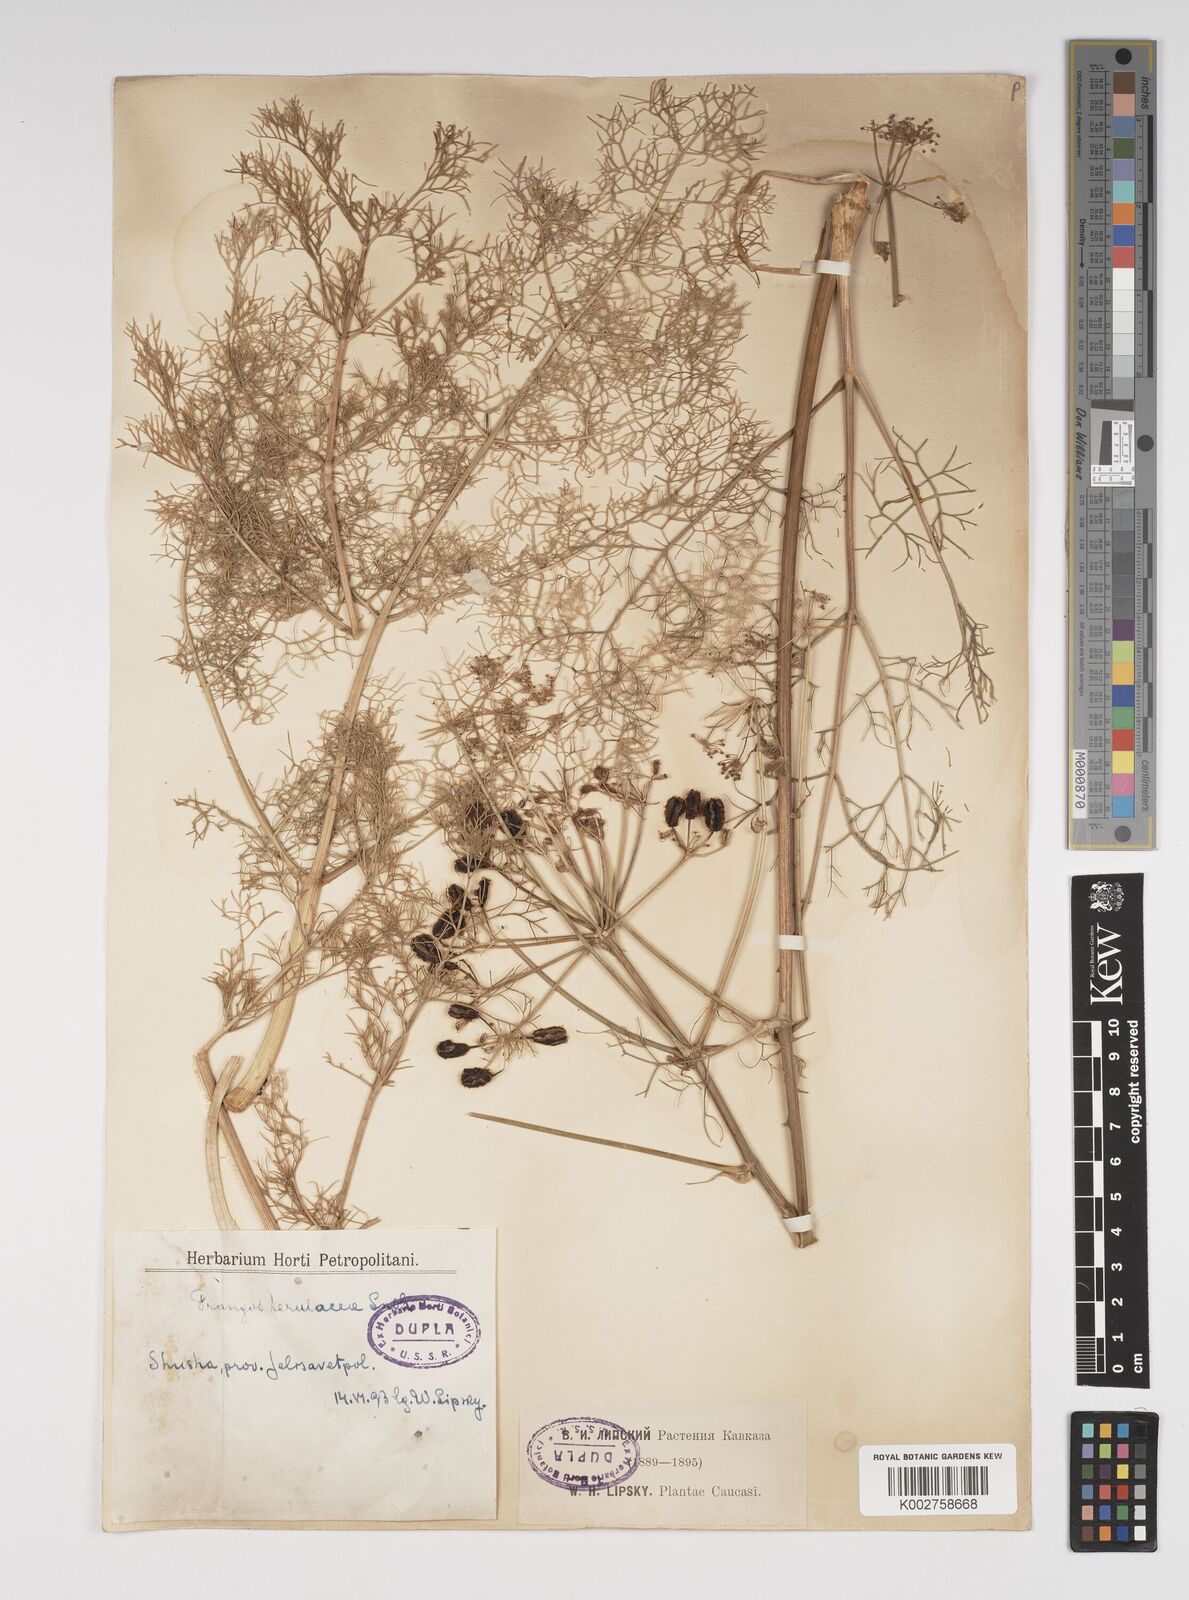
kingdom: Plantae
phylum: Tracheophyta
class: Magnoliopsida
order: Apiales
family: Apiaceae
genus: Prangos
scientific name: Prangos ferulacea
